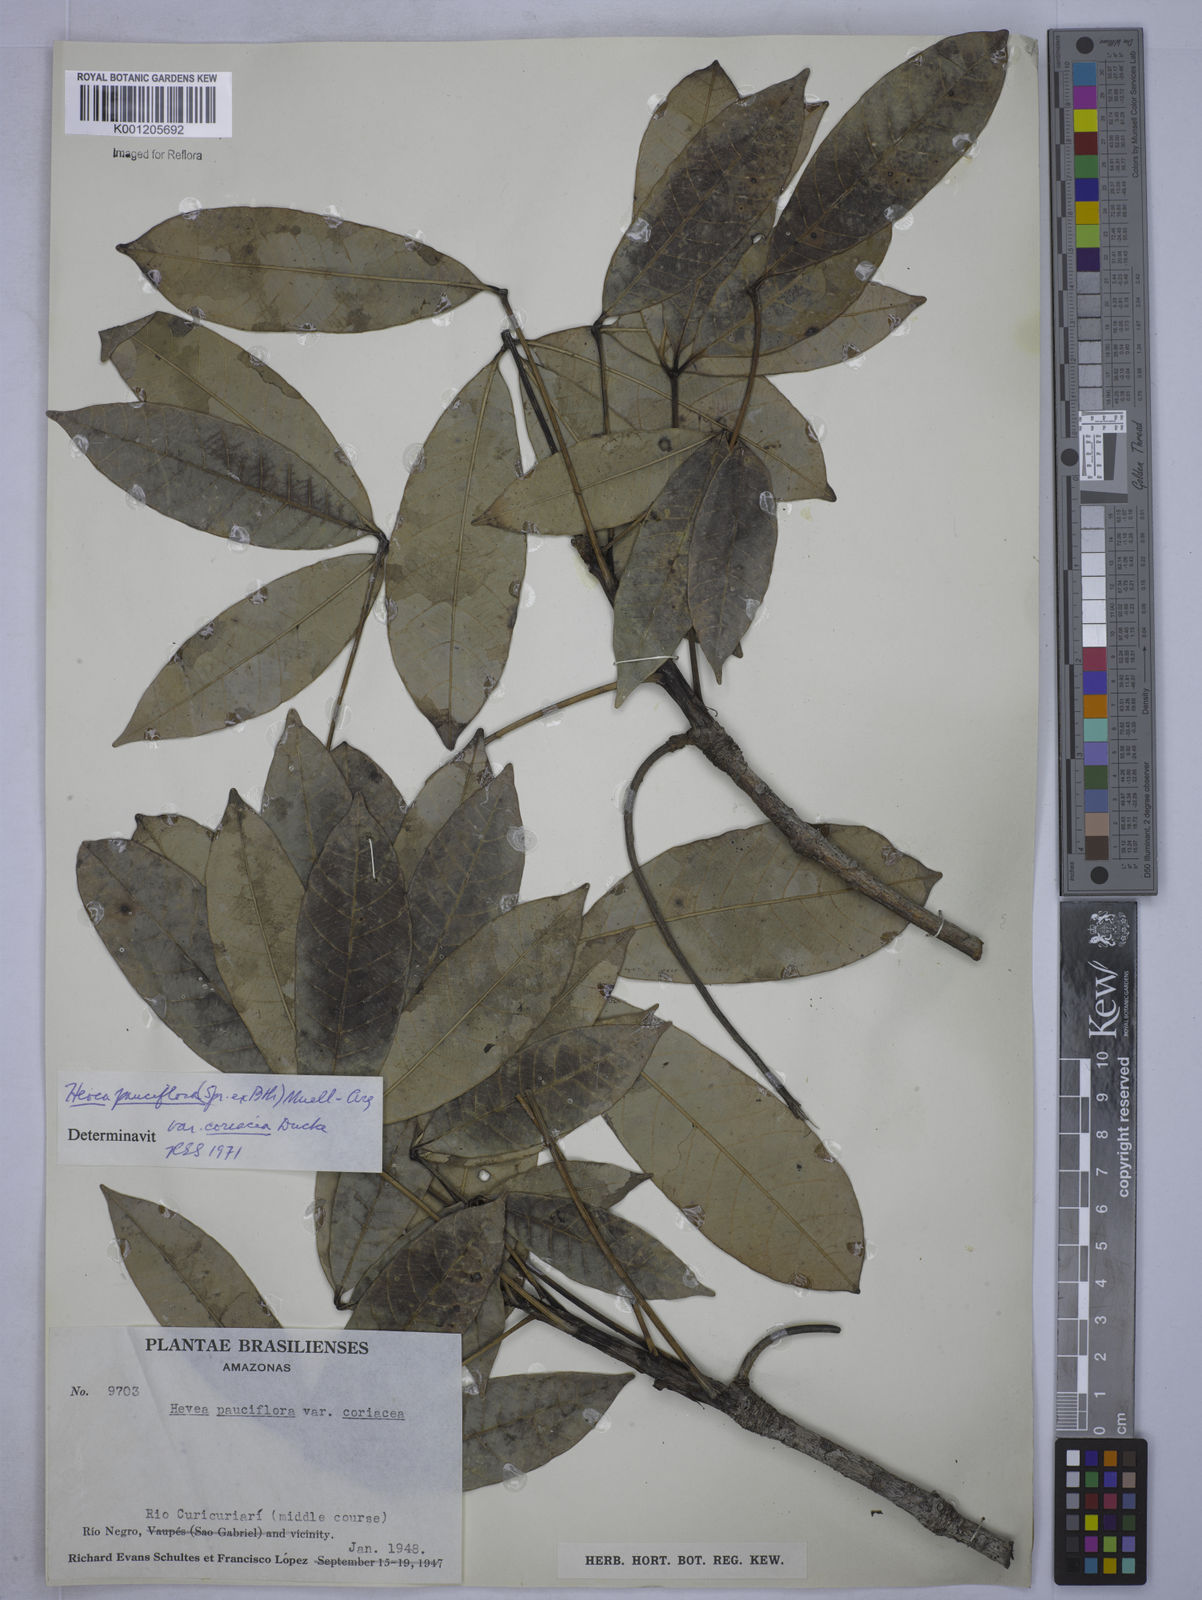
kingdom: Plantae
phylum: Tracheophyta
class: Magnoliopsida
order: Malpighiales
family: Euphorbiaceae
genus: Hevea
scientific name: Hevea pauciflora
